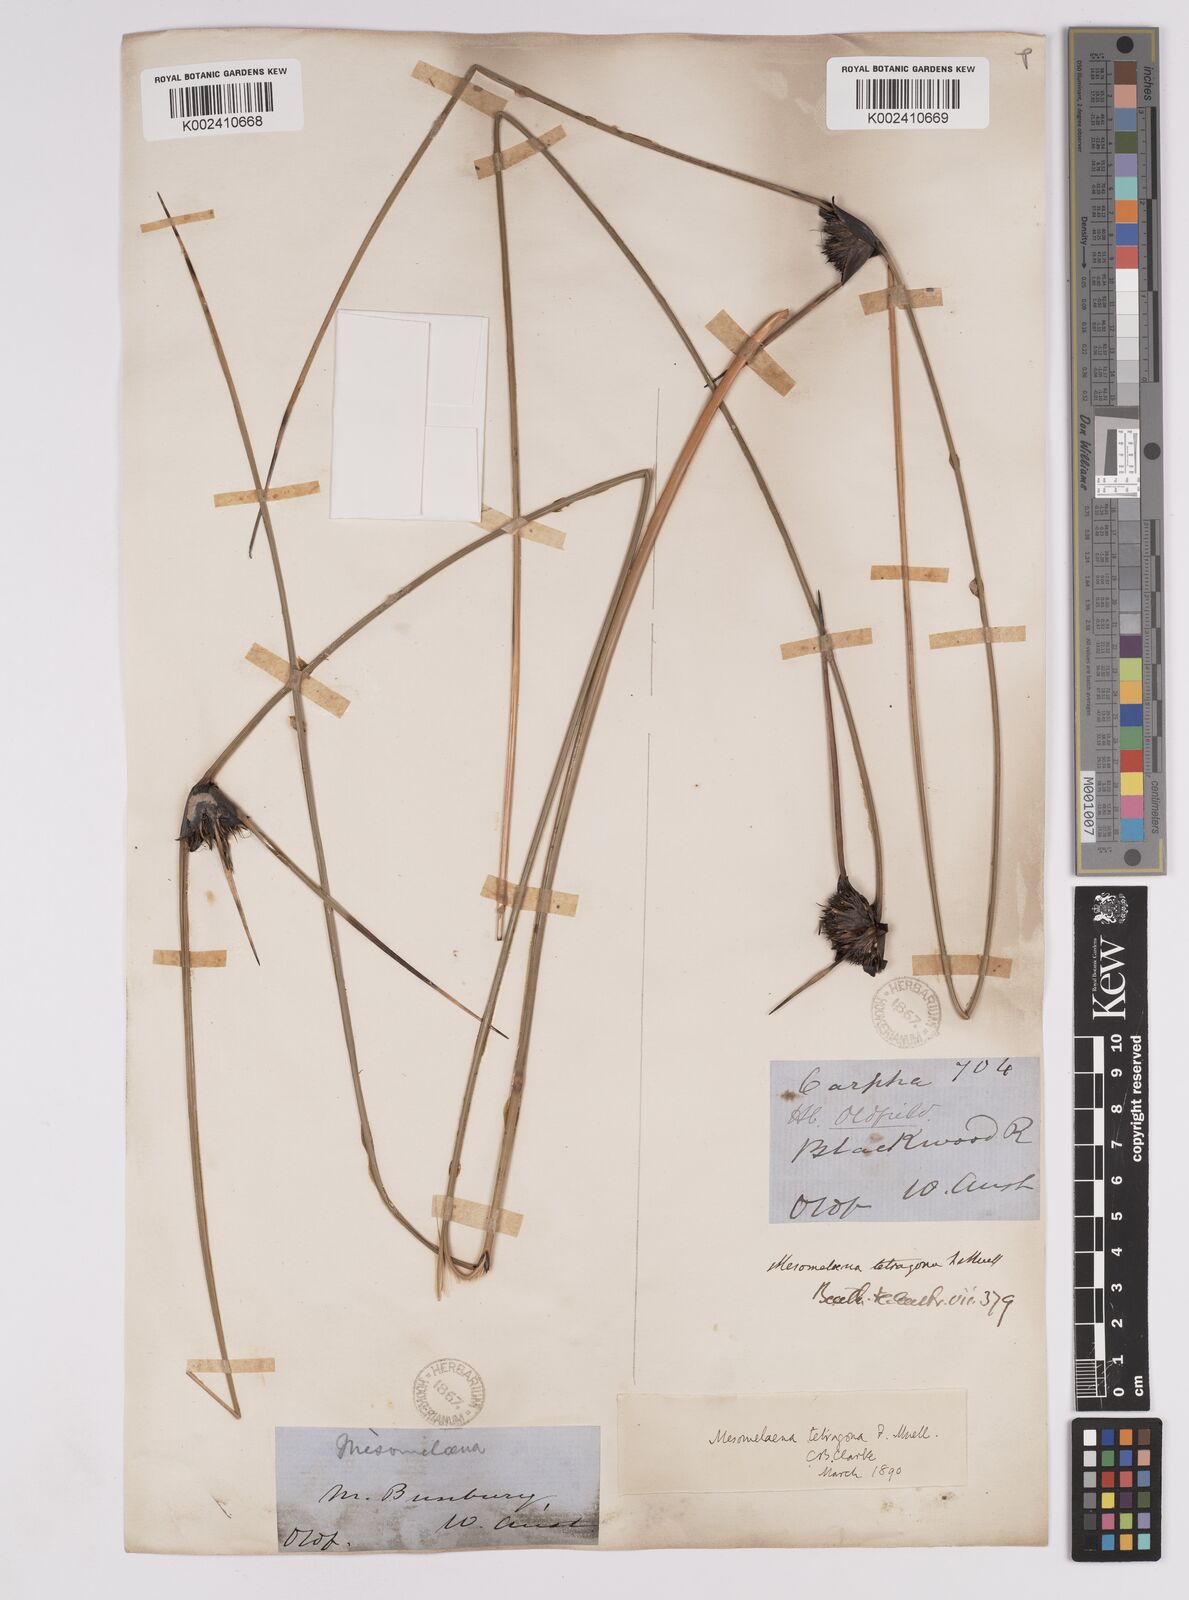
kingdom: Plantae
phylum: Tracheophyta
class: Liliopsida
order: Poales
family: Cyperaceae
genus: Mesomelaena
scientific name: Mesomelaena tetragona
